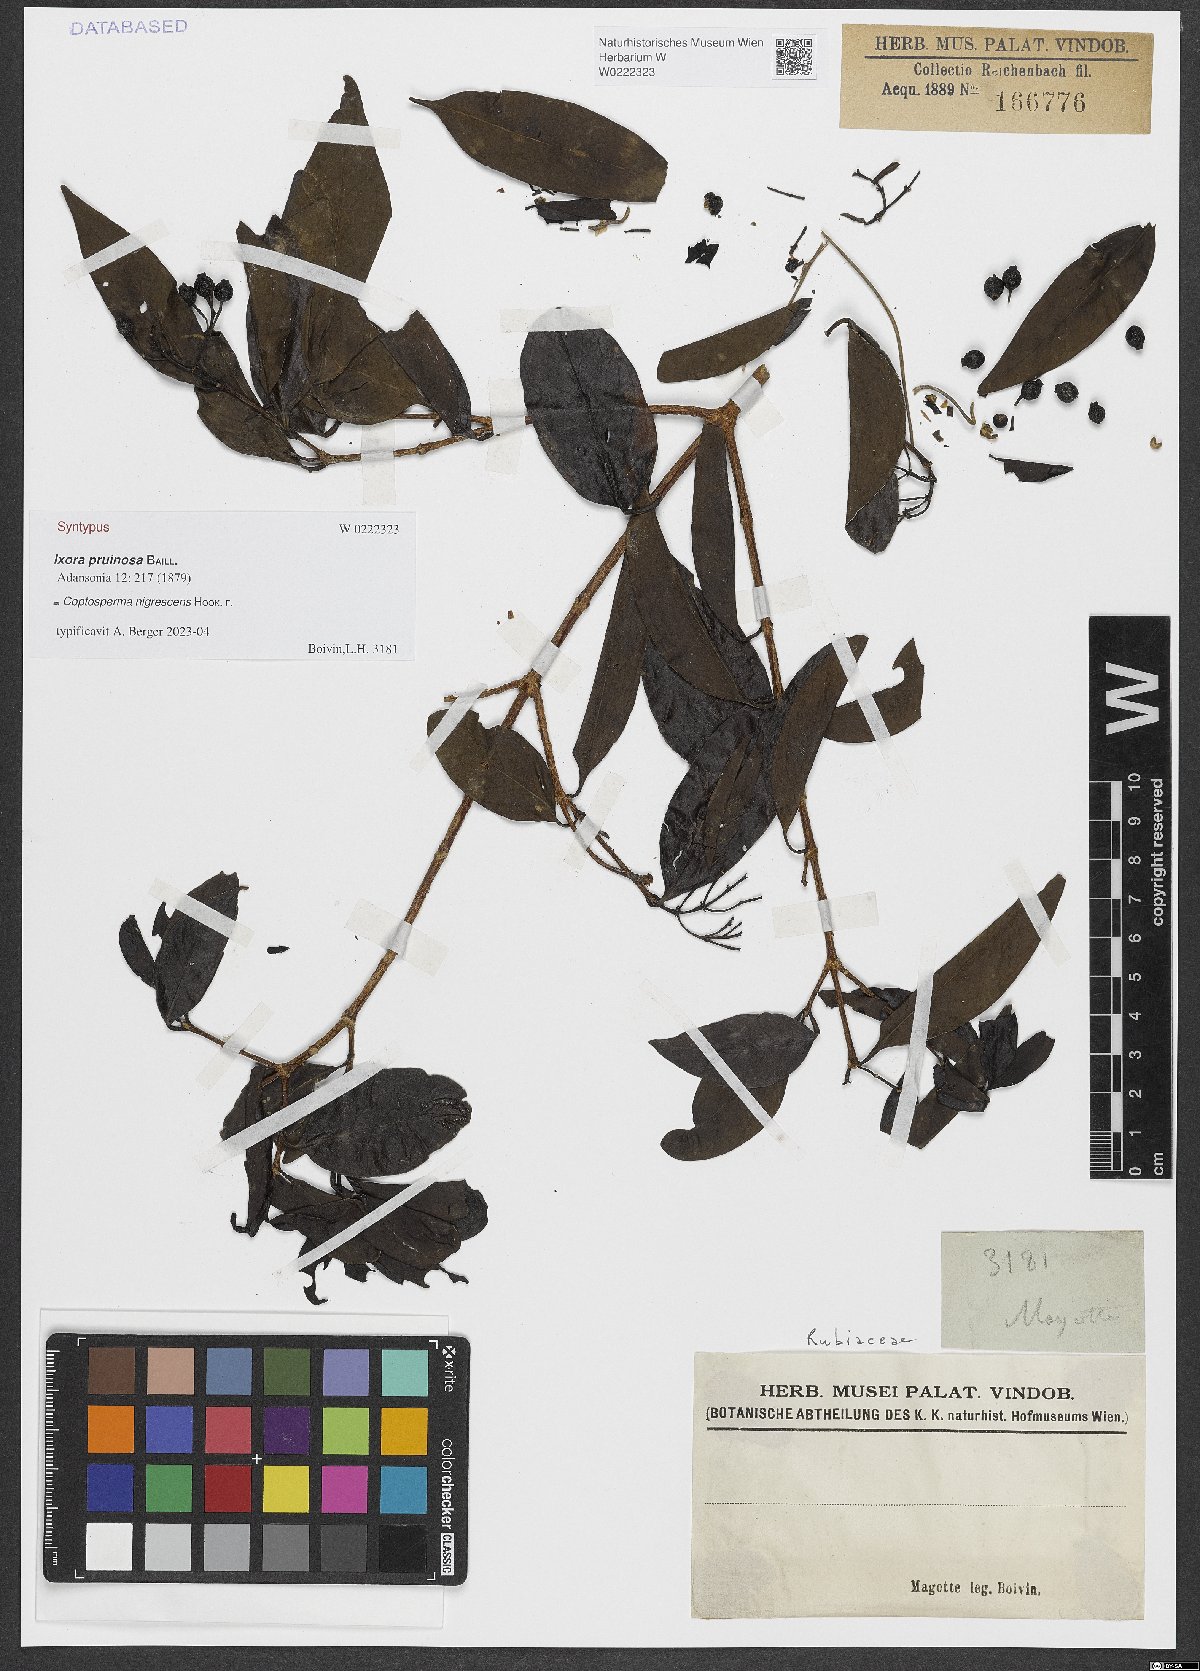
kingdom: Plantae
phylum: Tracheophyta
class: Magnoliopsida
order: Gentianales
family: Rubiaceae
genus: Coptosperma
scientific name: Coptosperma nigrescens
